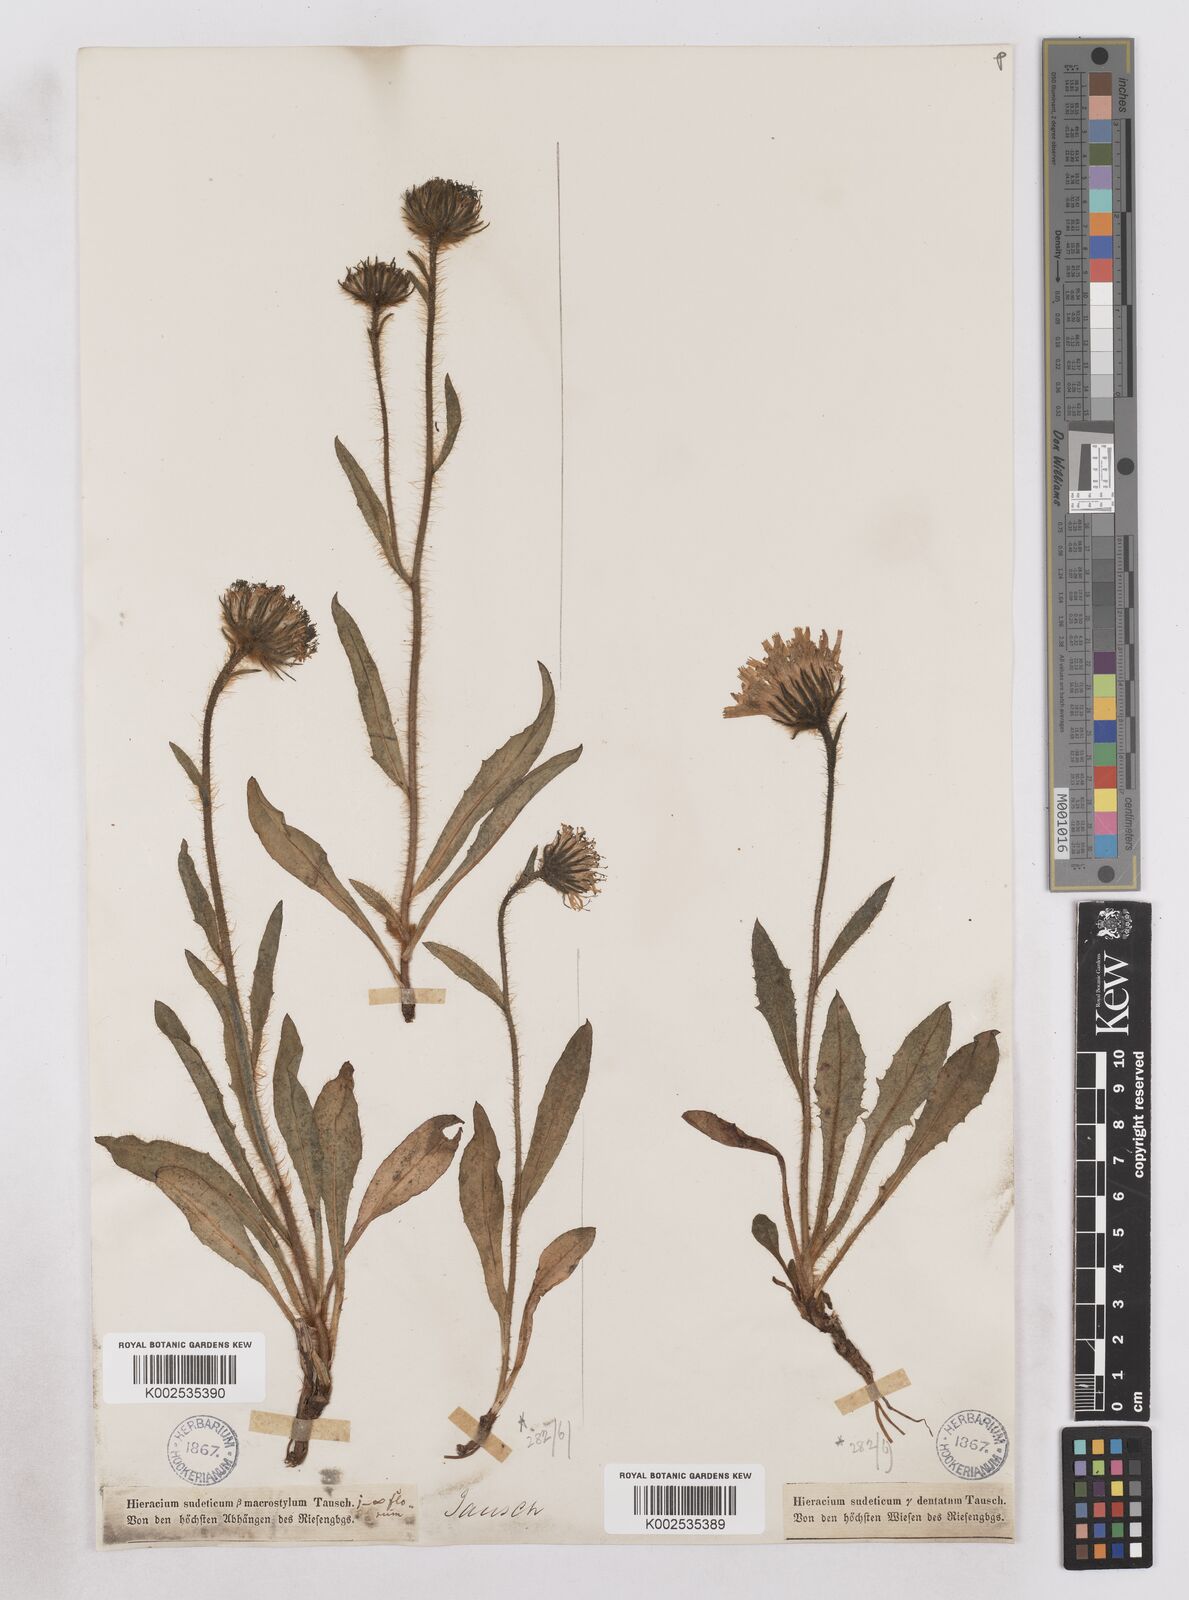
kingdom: Plantae
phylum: Tracheophyta
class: Magnoliopsida
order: Asterales
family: Asteraceae
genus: Hieracium
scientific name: Hieracium fritzei
